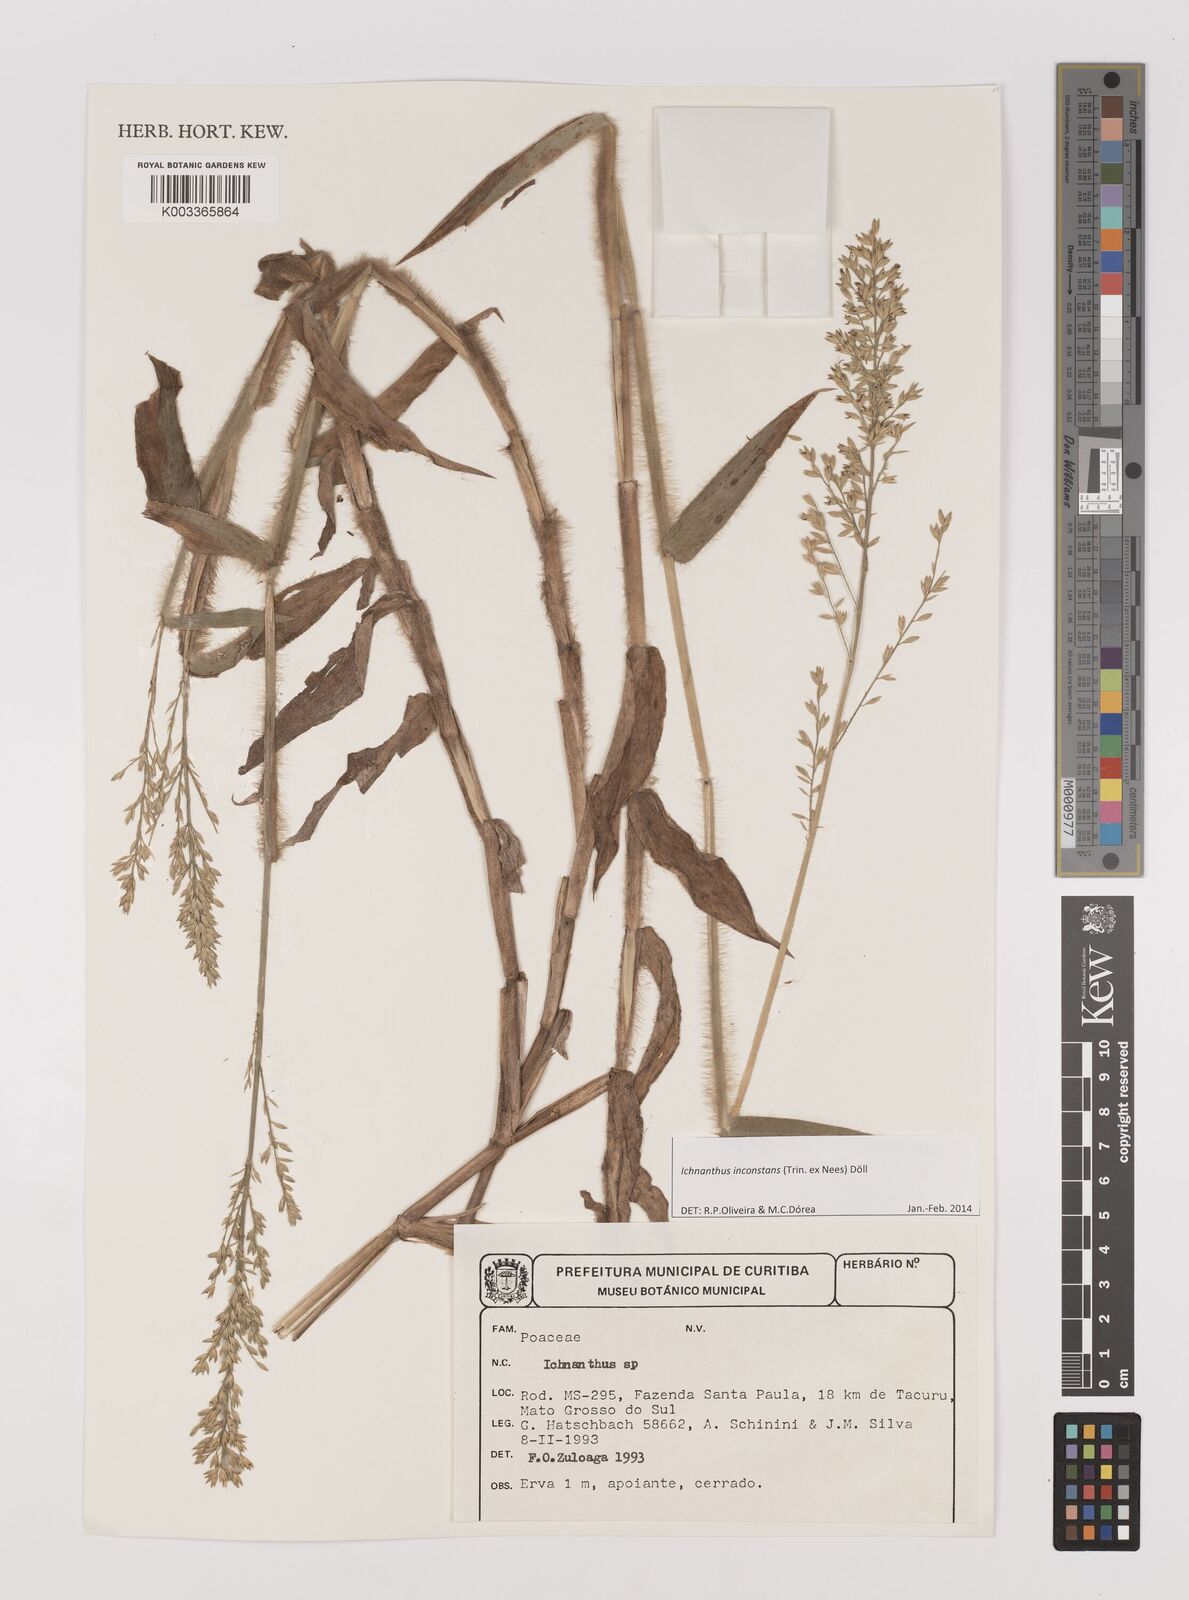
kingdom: Plantae
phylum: Tracheophyta
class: Liliopsida
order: Poales
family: Poaceae
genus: Ichnanthus
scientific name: Ichnanthus inconstans
